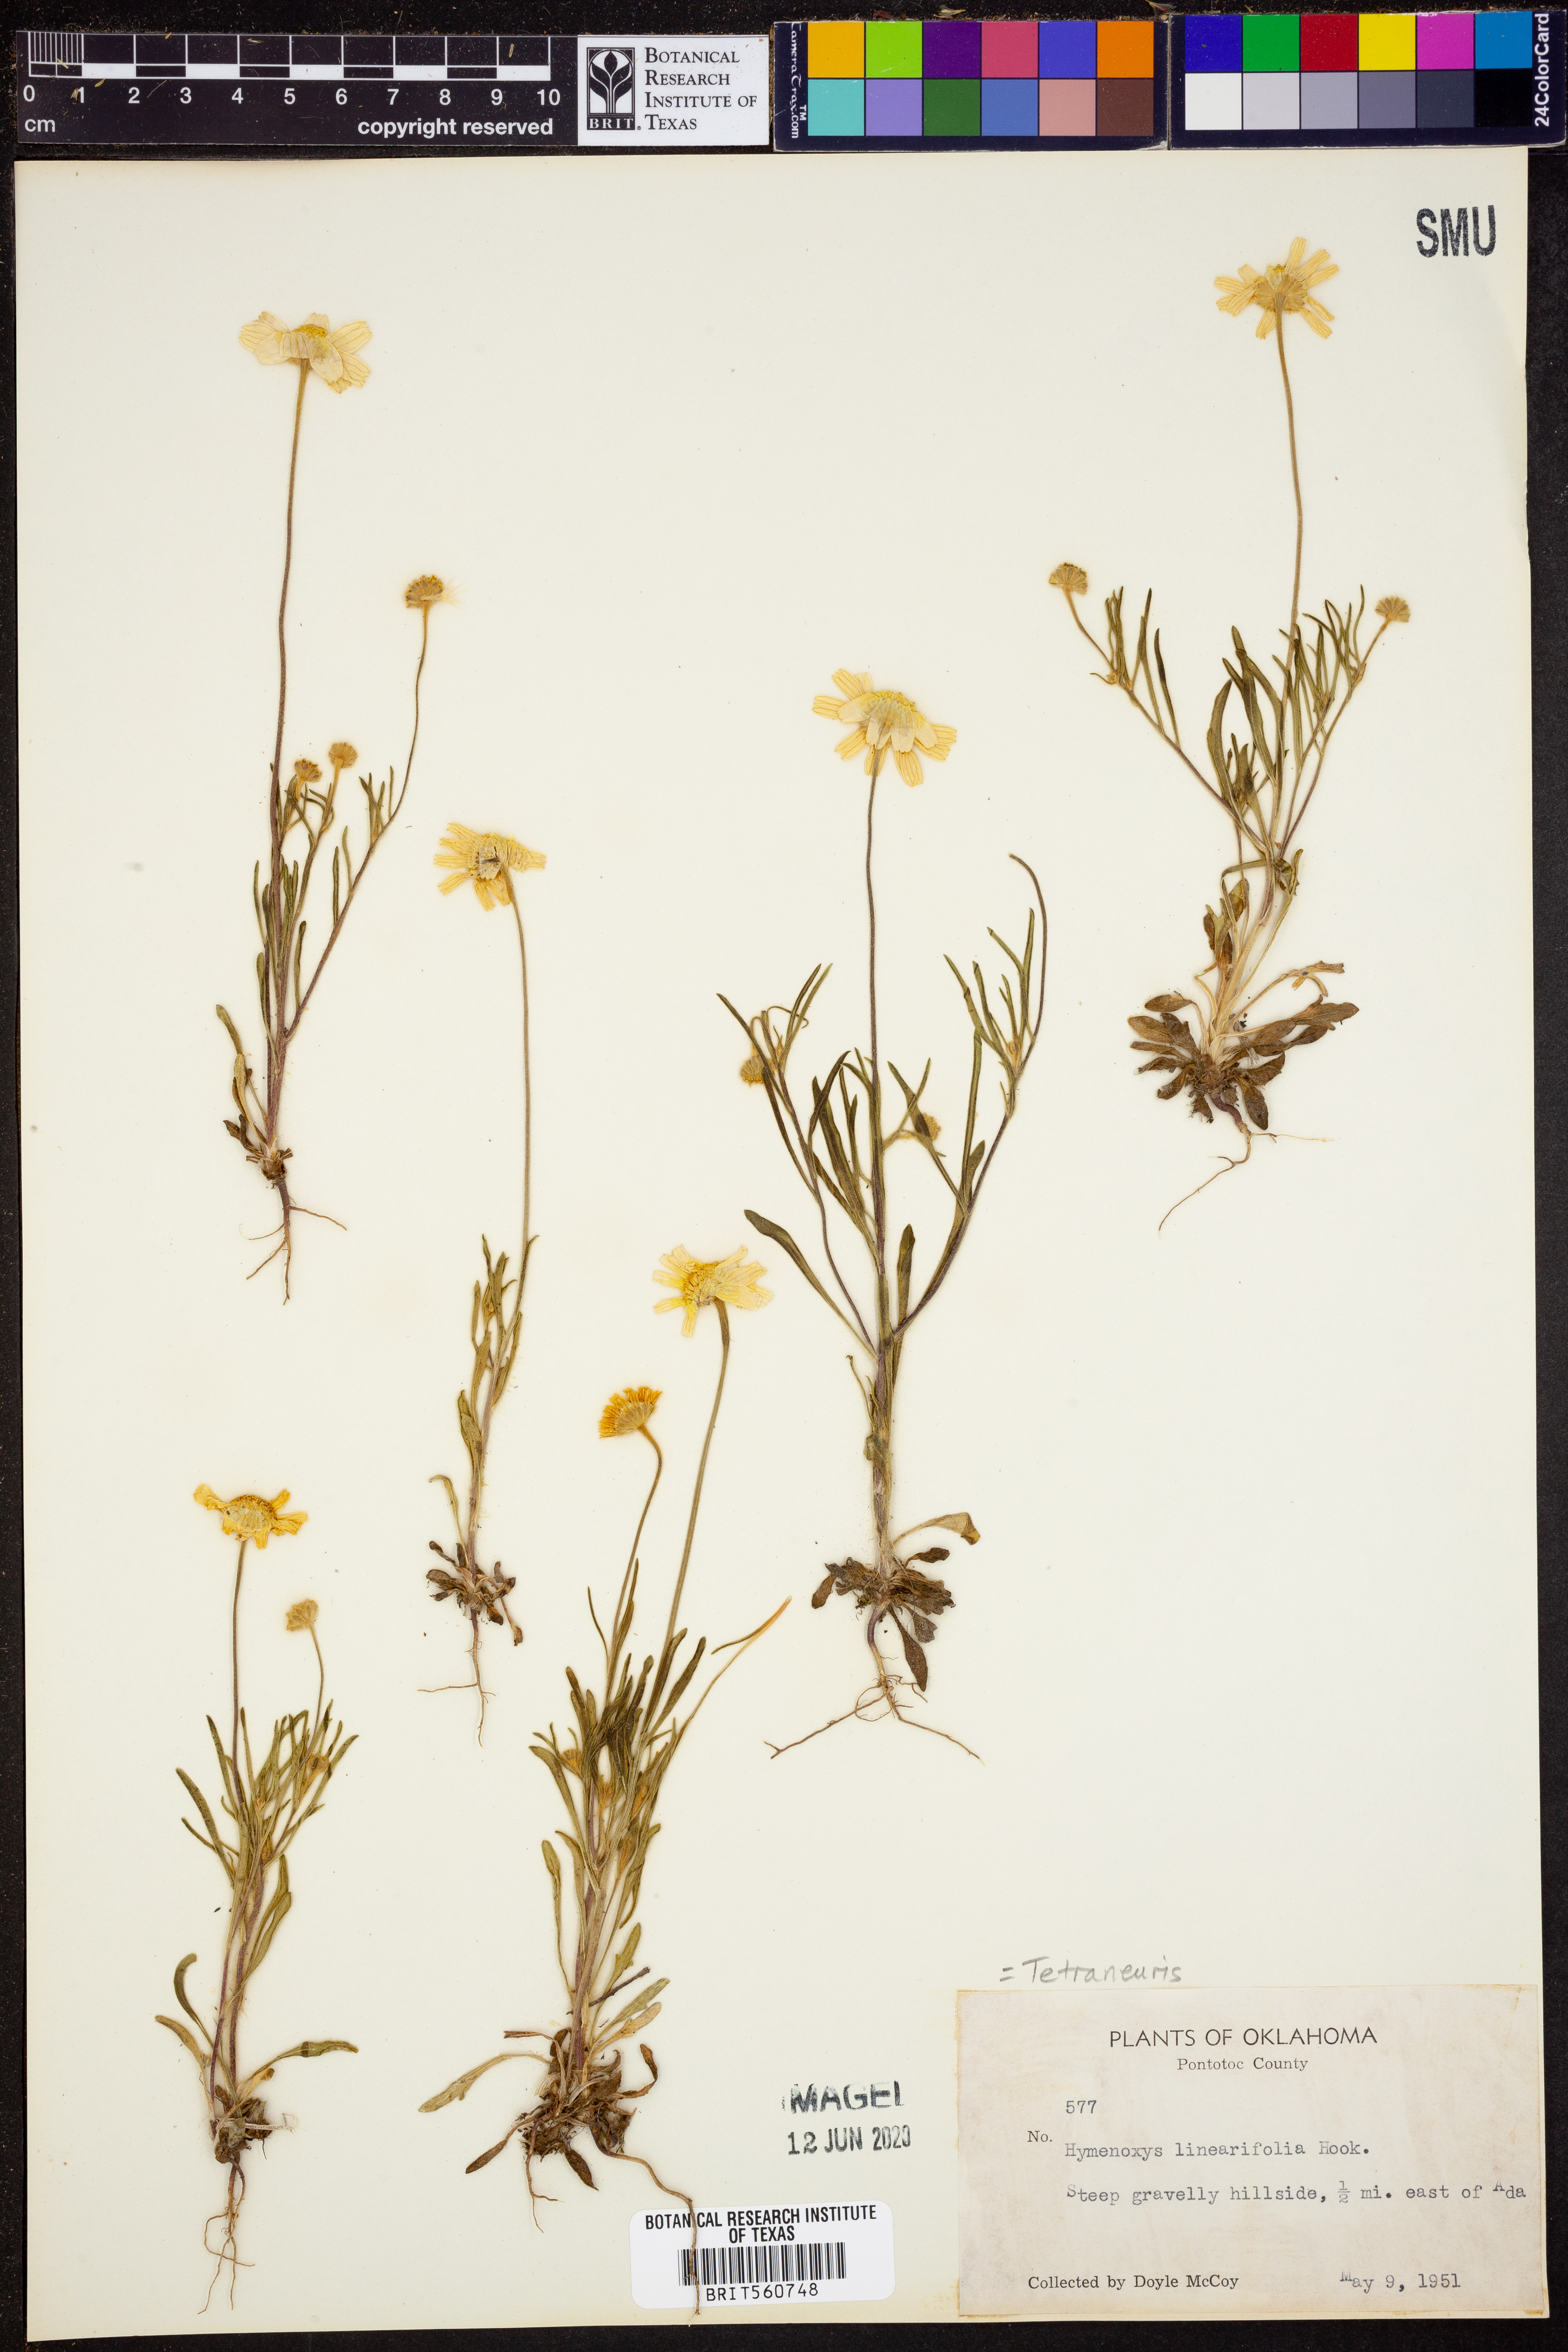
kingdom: Plantae
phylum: Tracheophyta
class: Magnoliopsida
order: Asterales
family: Asteraceae
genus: Tetraneuris
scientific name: Tetraneuris linearifolia
